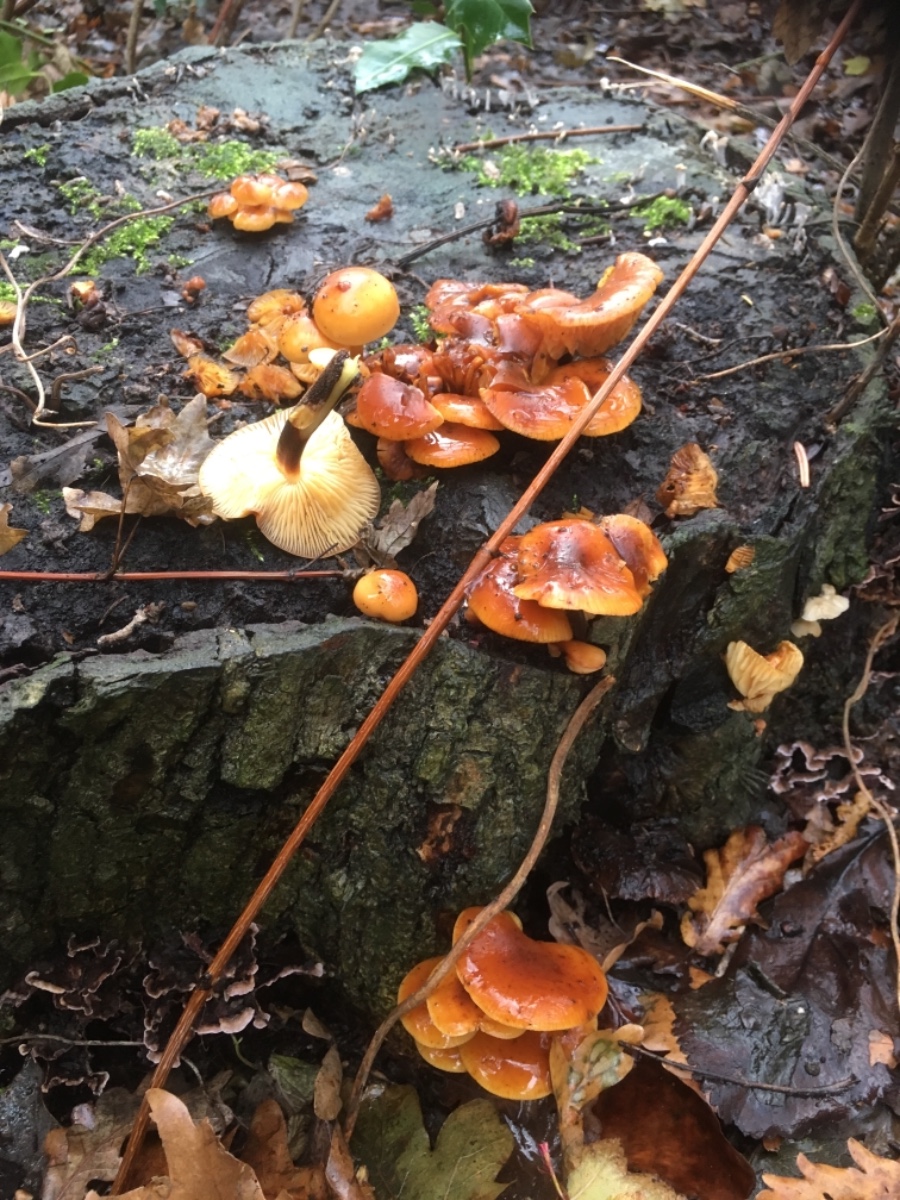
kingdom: Fungi
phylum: Basidiomycota
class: Agaricomycetes
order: Agaricales
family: Physalacriaceae
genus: Flammulina
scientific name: Flammulina velutipes
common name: gul fløjlsfod
